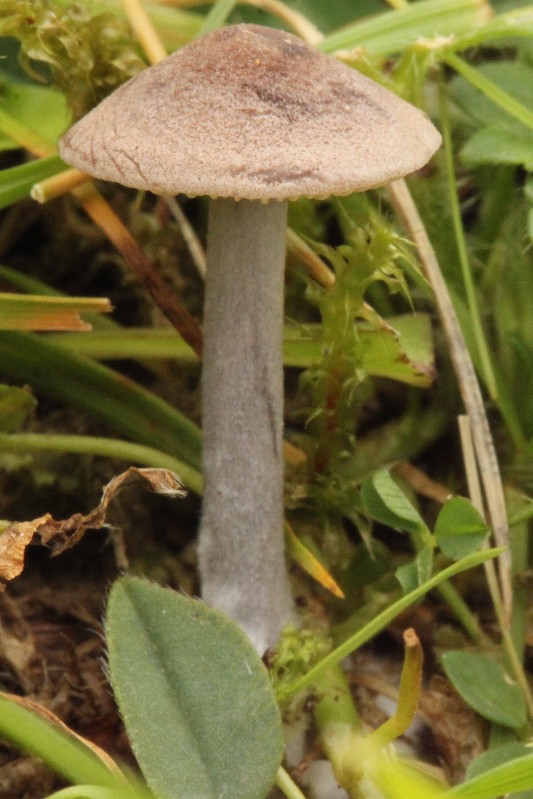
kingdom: Fungi
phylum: Basidiomycota
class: Agaricomycetes
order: Agaricales
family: Entolomataceae
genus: Entoloma
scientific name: Entoloma griseocyaneum
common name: gråblå rødblad
